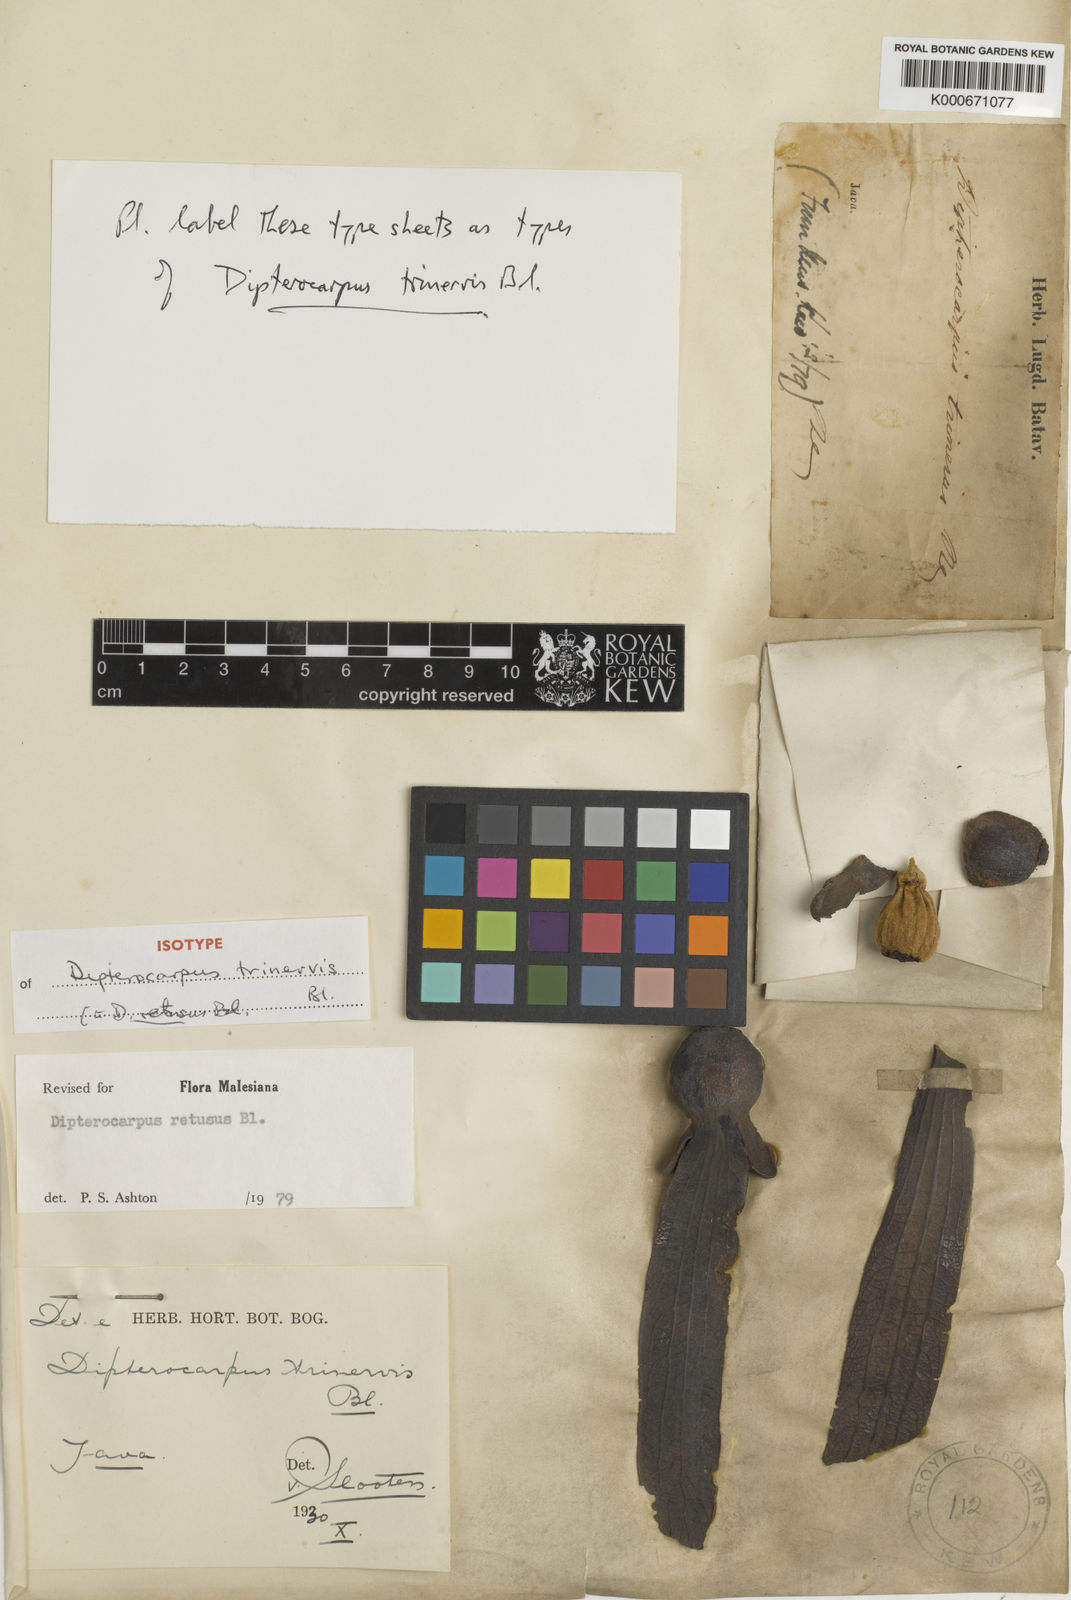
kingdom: Plantae
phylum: Tracheophyta
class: Magnoliopsida
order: Malvales
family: Dipterocarpaceae
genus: Dipterocarpus
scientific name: Dipterocarpus retusus
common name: Hollong
